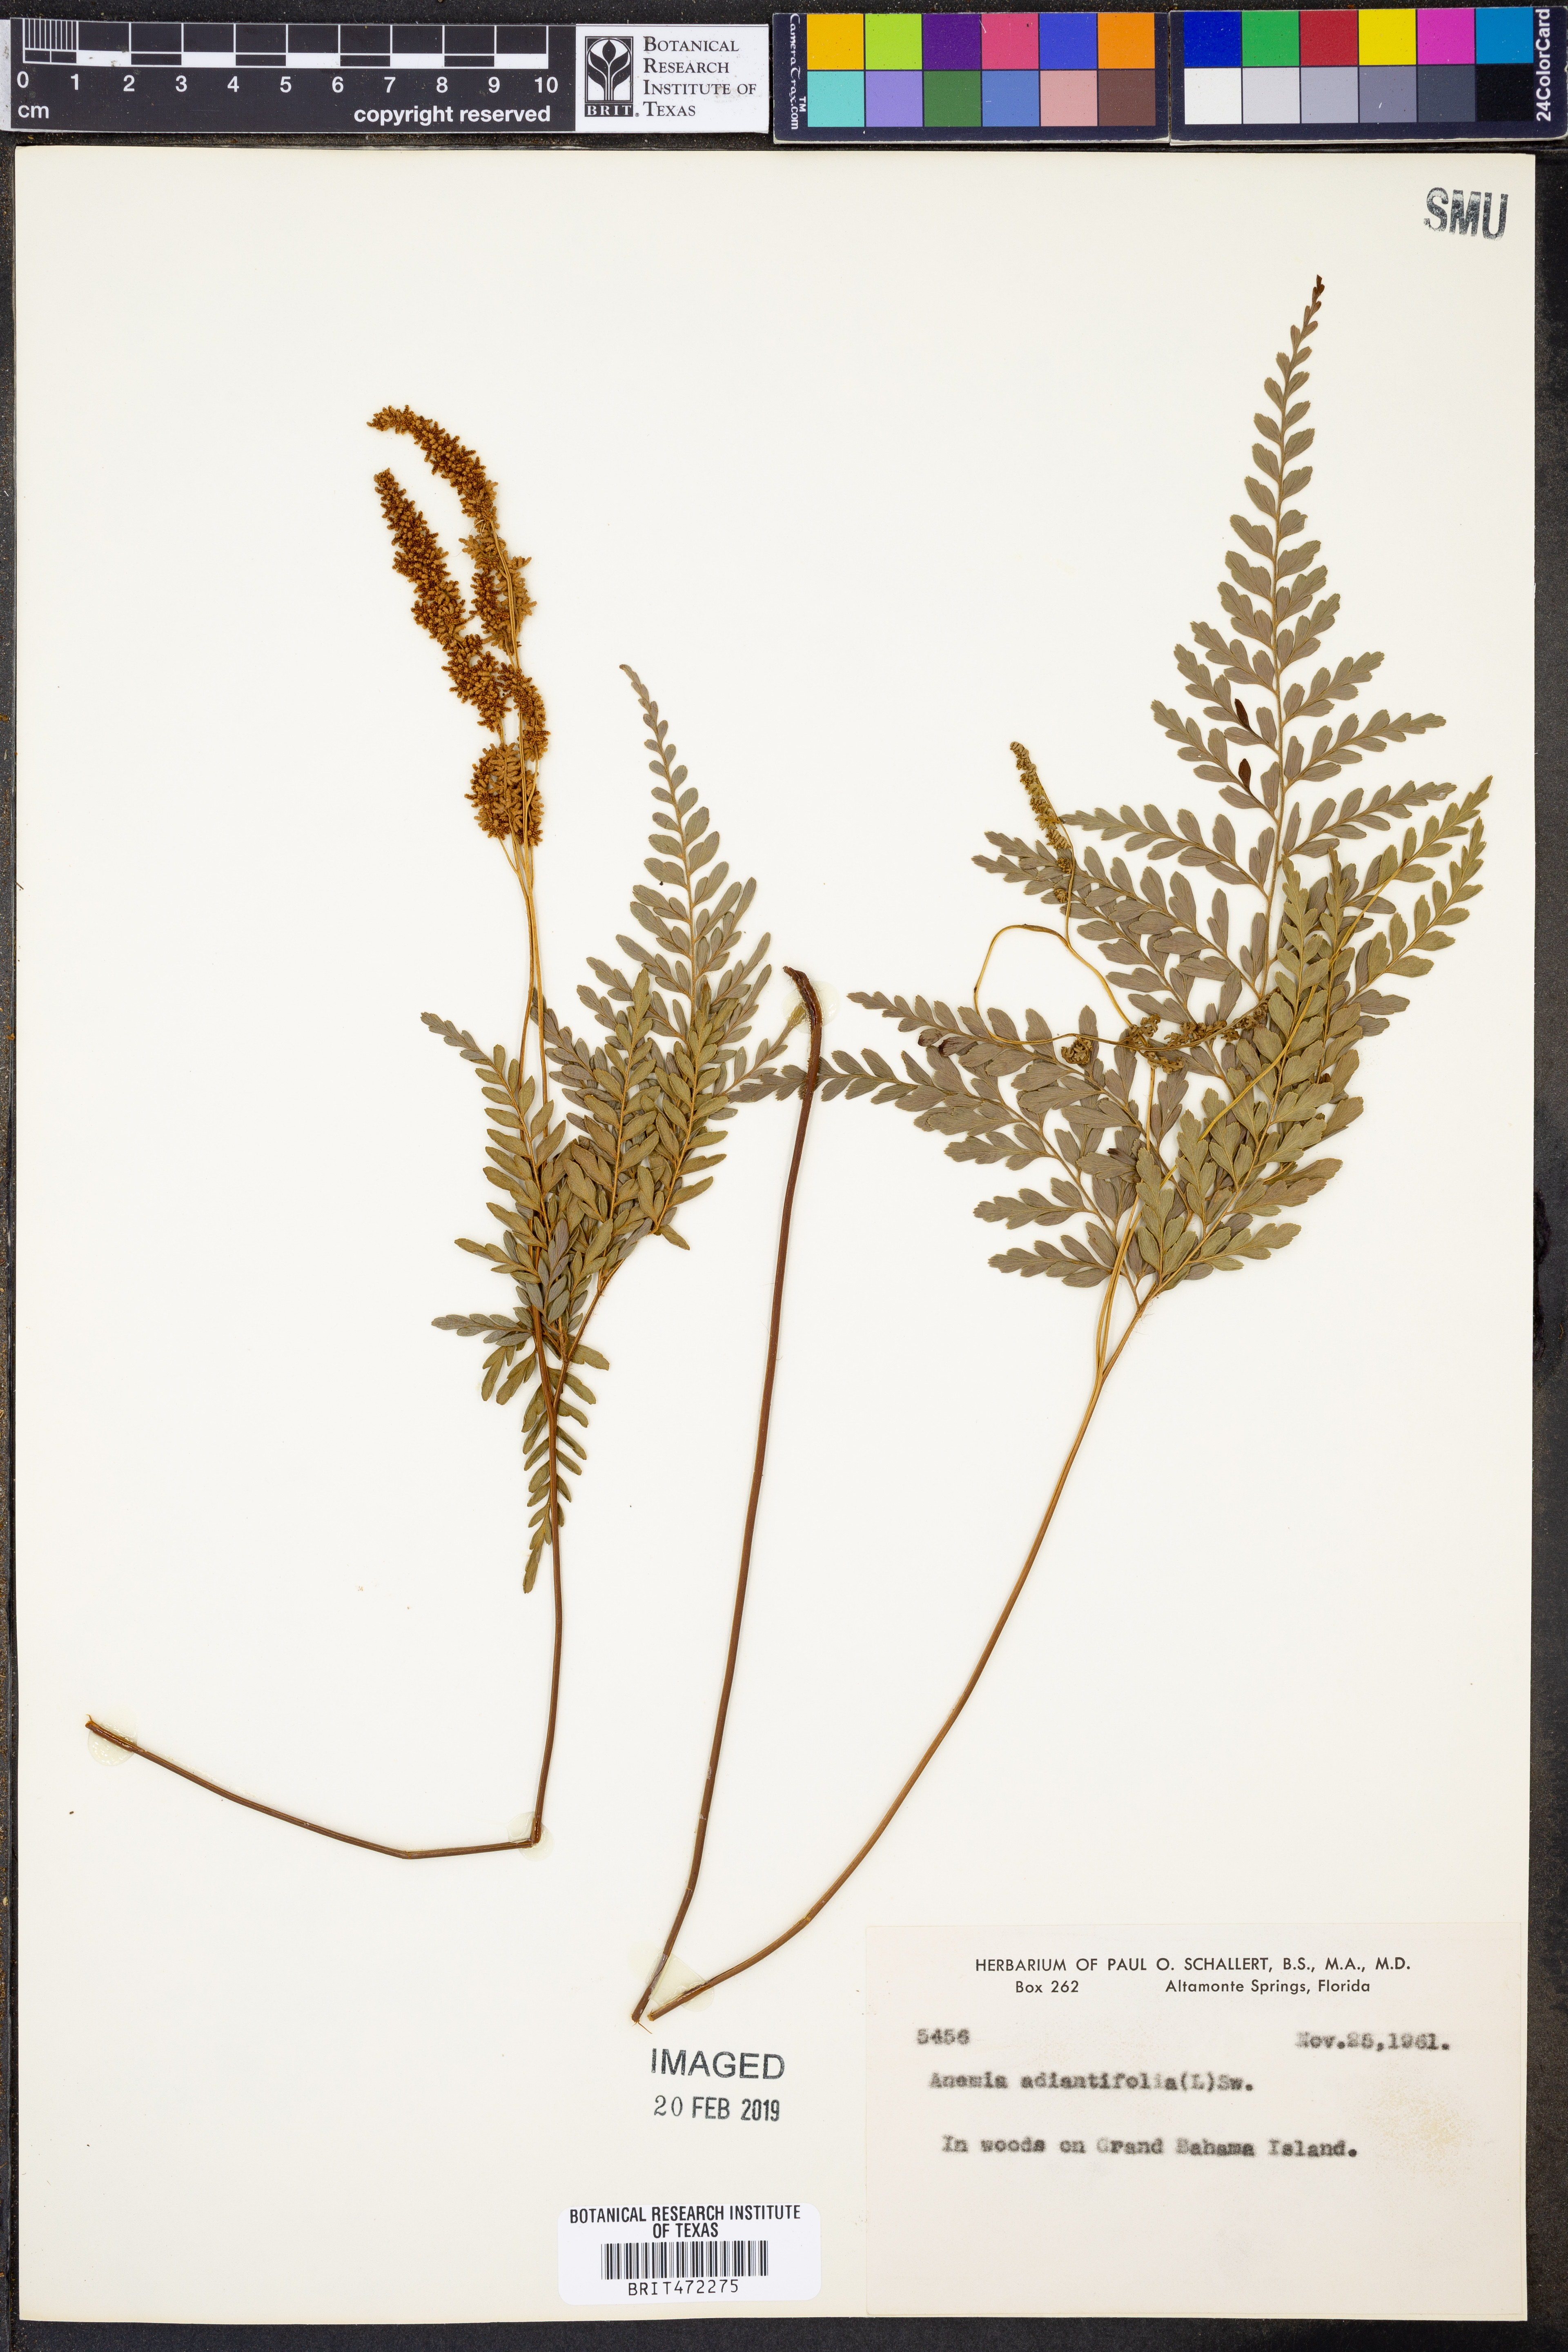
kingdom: Plantae
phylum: Tracheophyta
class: Polypodiopsida
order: Schizaeales
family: Anemiaceae
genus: Anemia
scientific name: Anemia adiantifolia
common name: Pine fern
